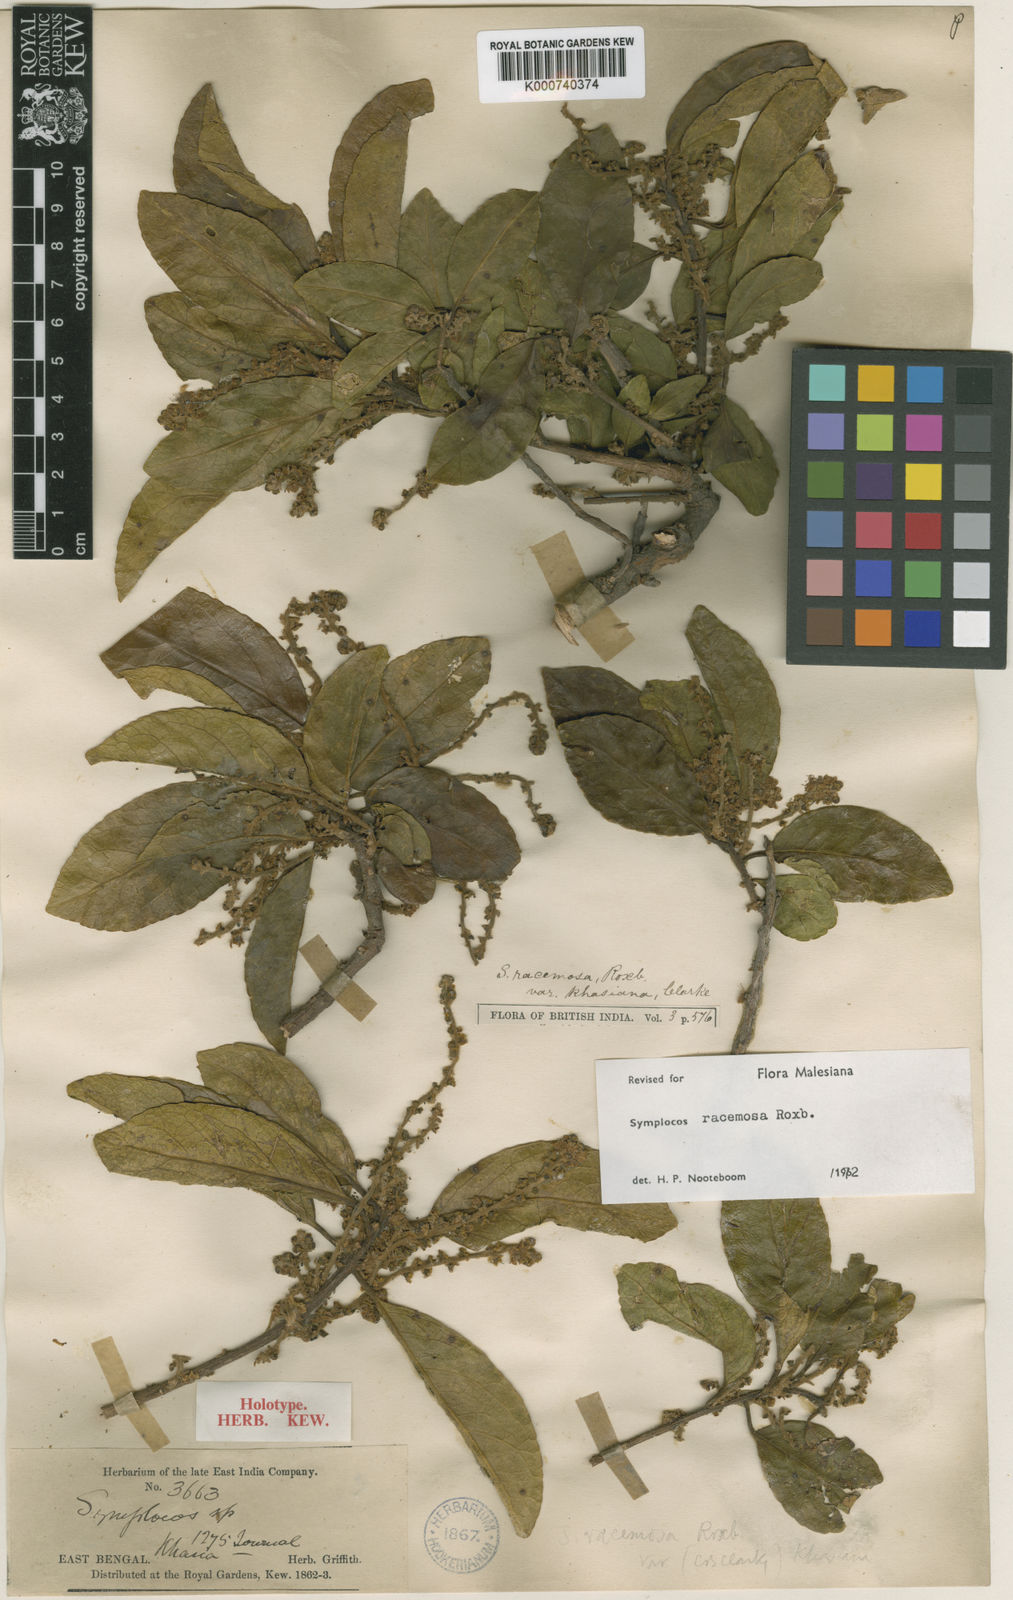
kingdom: Plantae
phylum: Tracheophyta
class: Magnoliopsida
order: Ericales
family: Symplocaceae
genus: Symplocos
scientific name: Symplocos racemosa
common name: Lodhtree
